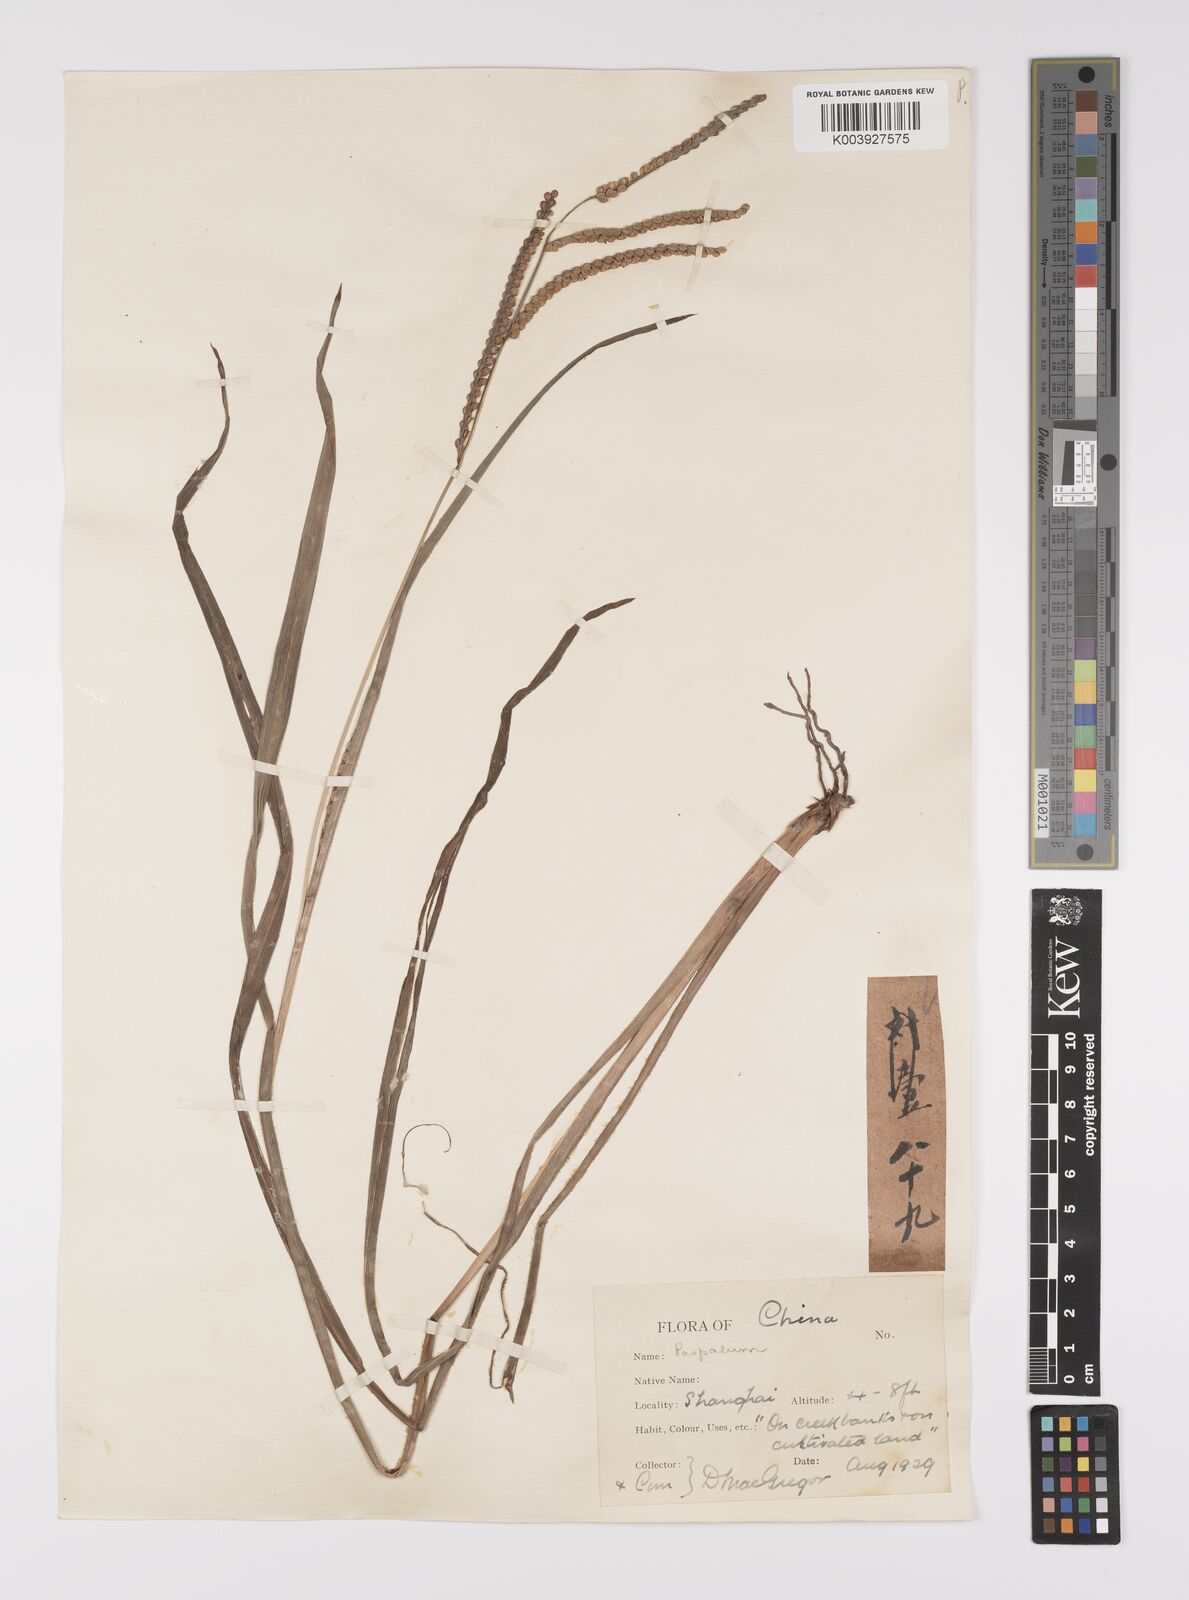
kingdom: Plantae
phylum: Tracheophyta
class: Liliopsida
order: Poales
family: Poaceae
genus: Paspalum
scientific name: Paspalum thunbergii
